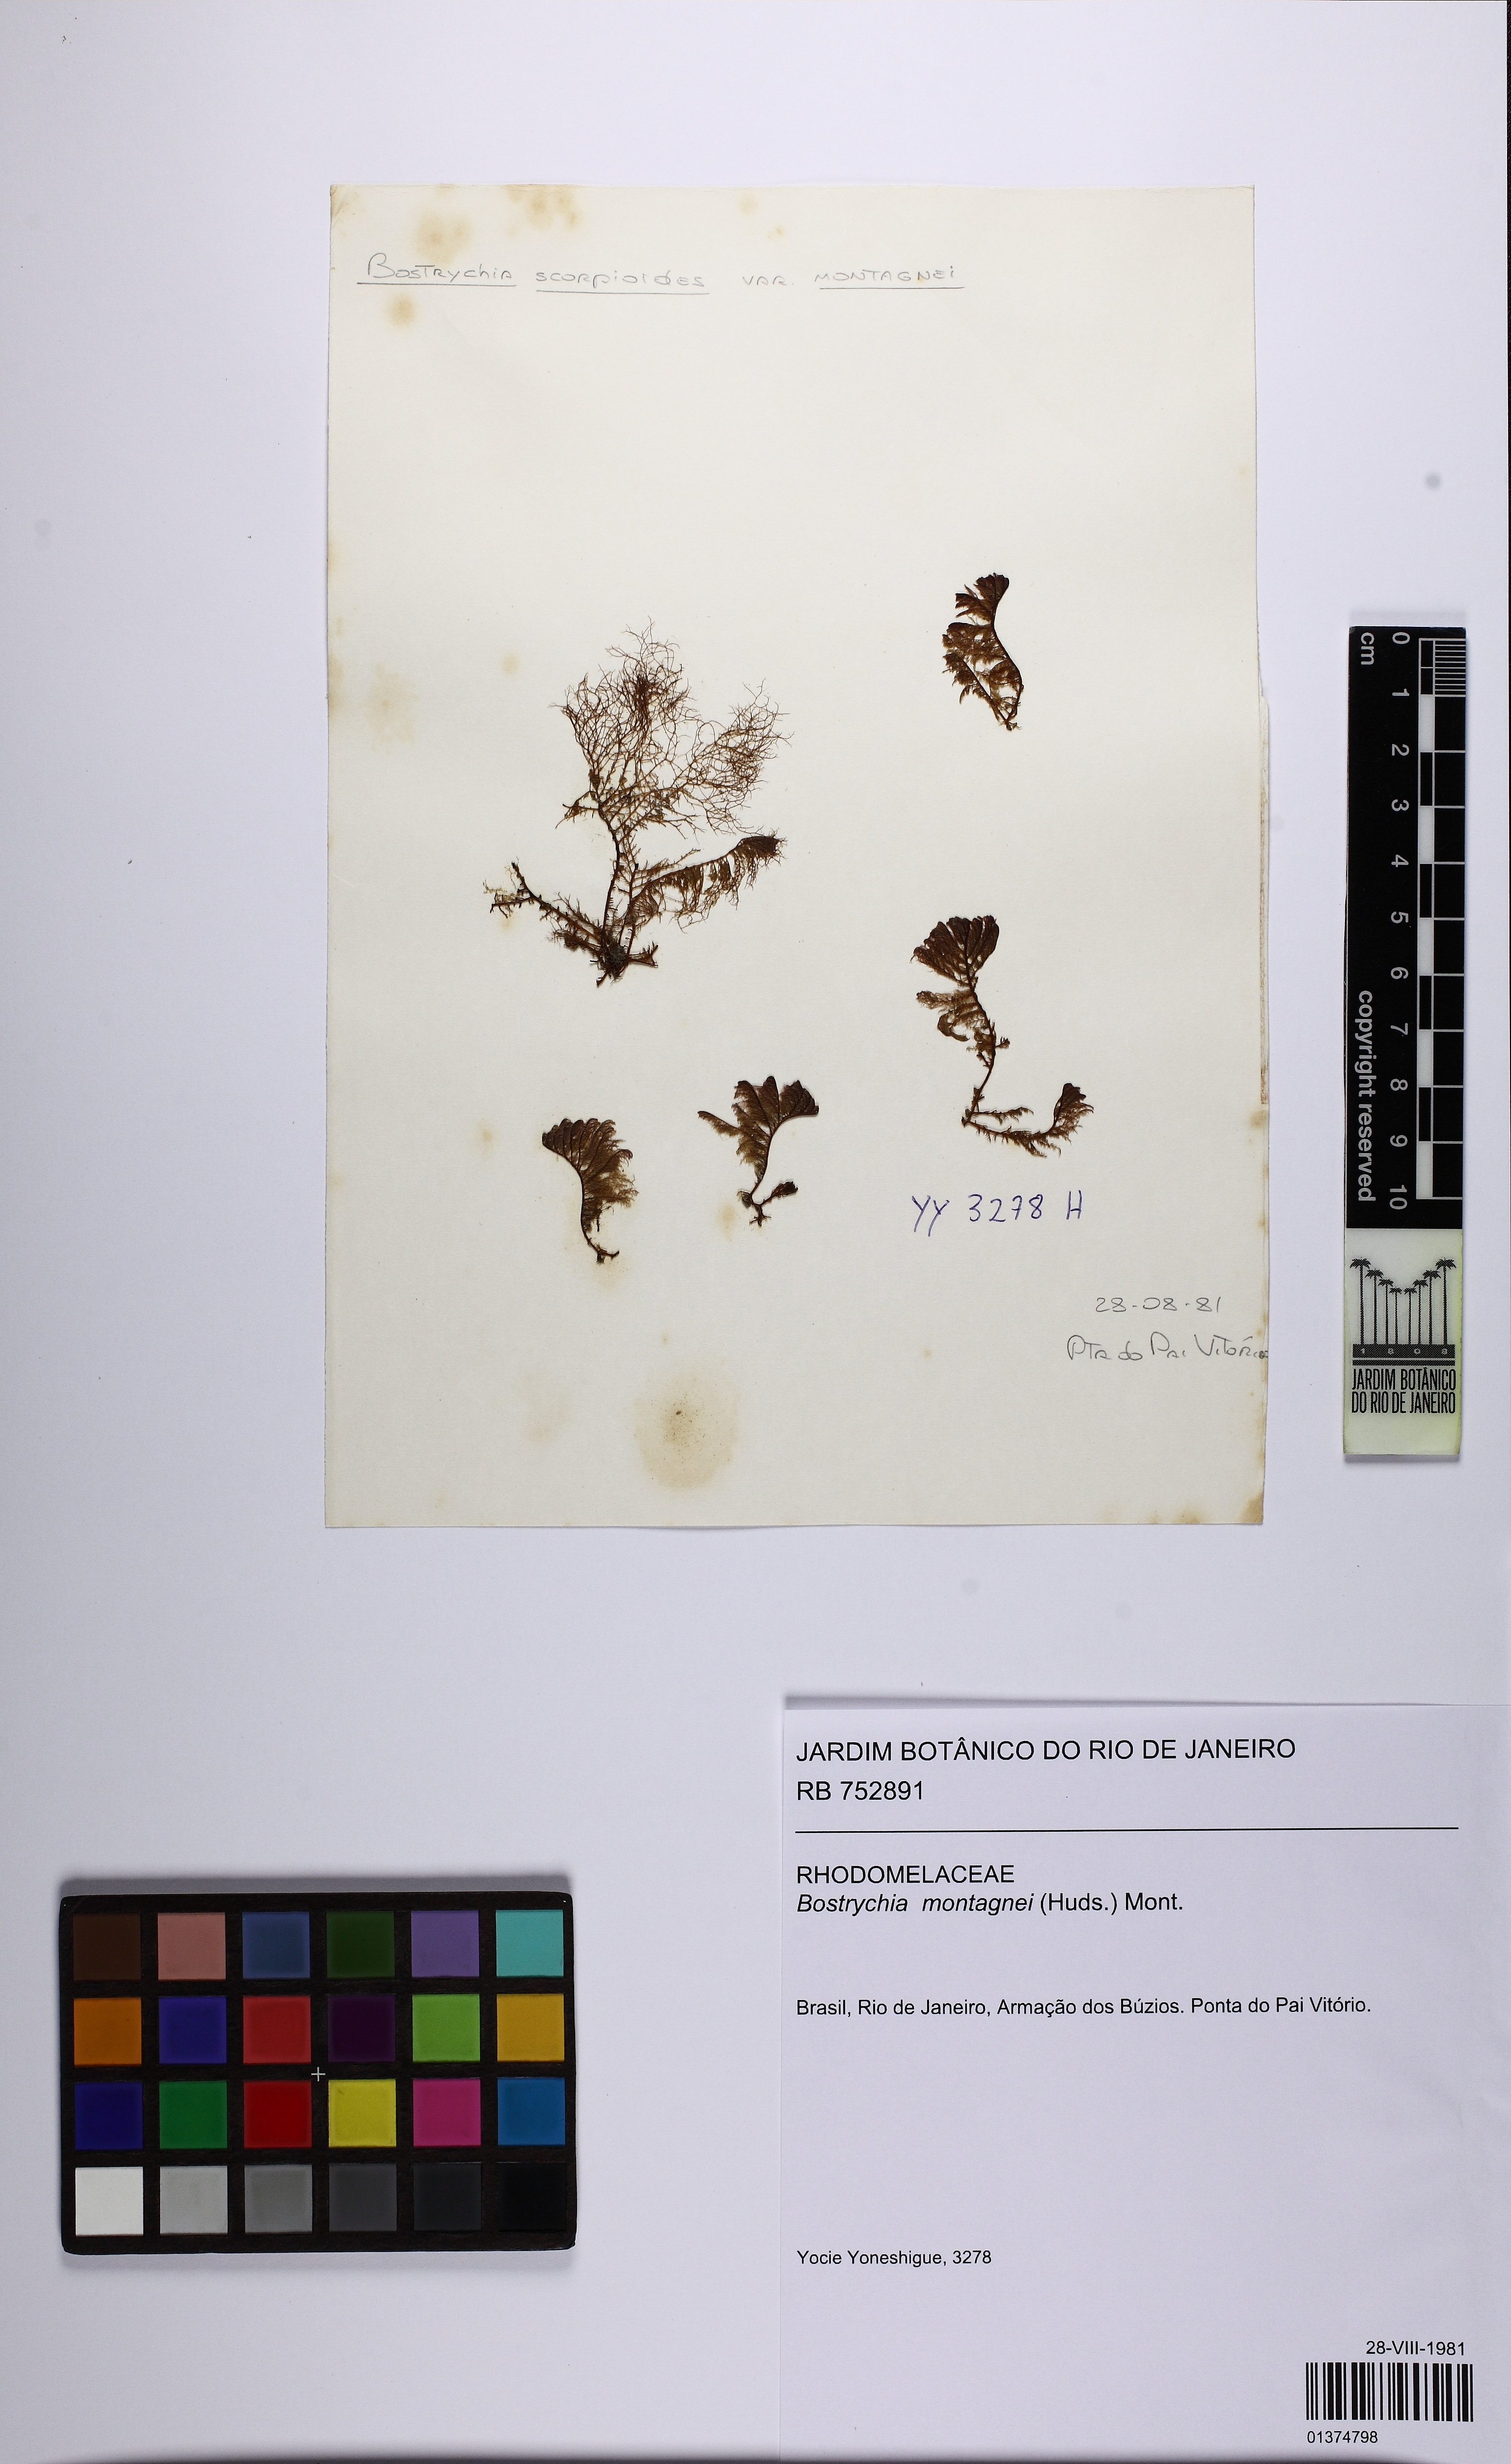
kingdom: Plantae
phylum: Rhodophyta
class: Florideophyceae
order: Ceramiales
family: Rhodomelaceae
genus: Bostrychia
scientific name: Bostrychia montagnei
